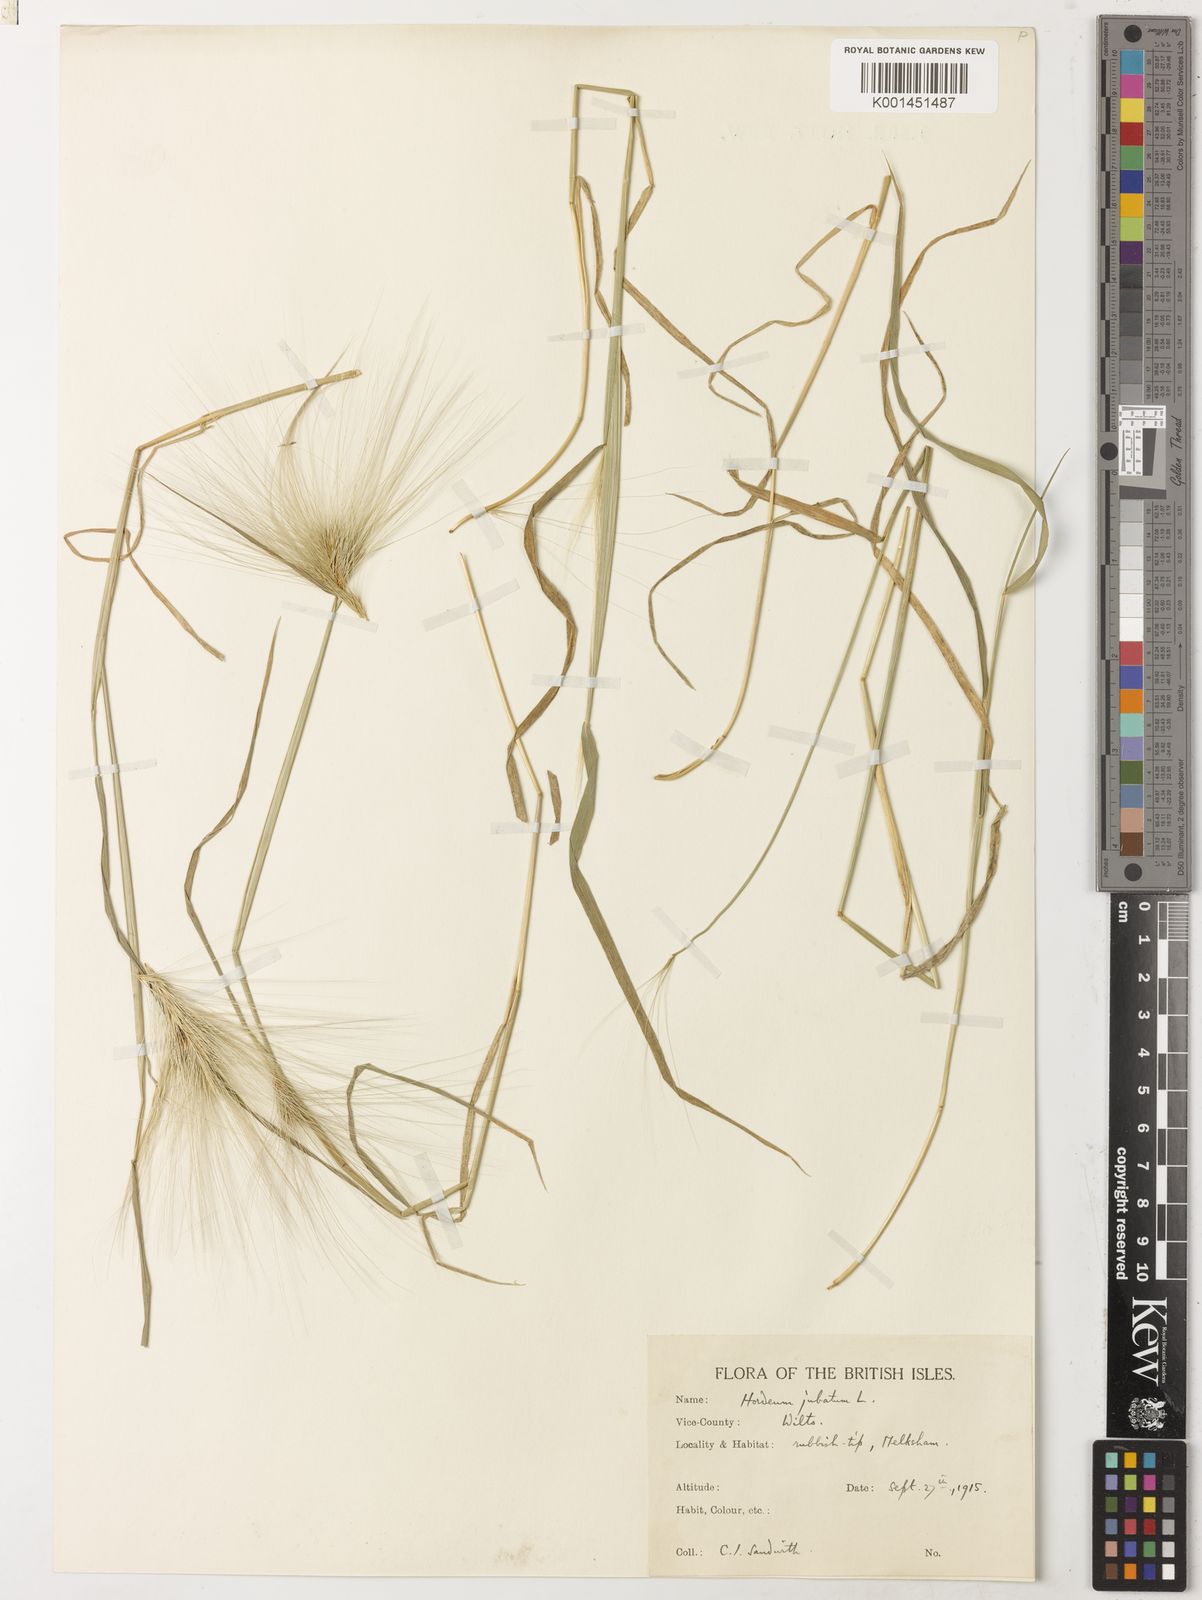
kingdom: Plantae
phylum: Tracheophyta
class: Liliopsida
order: Poales
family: Poaceae
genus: Hordeum
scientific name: Hordeum jubatum
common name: Foxtail barley
